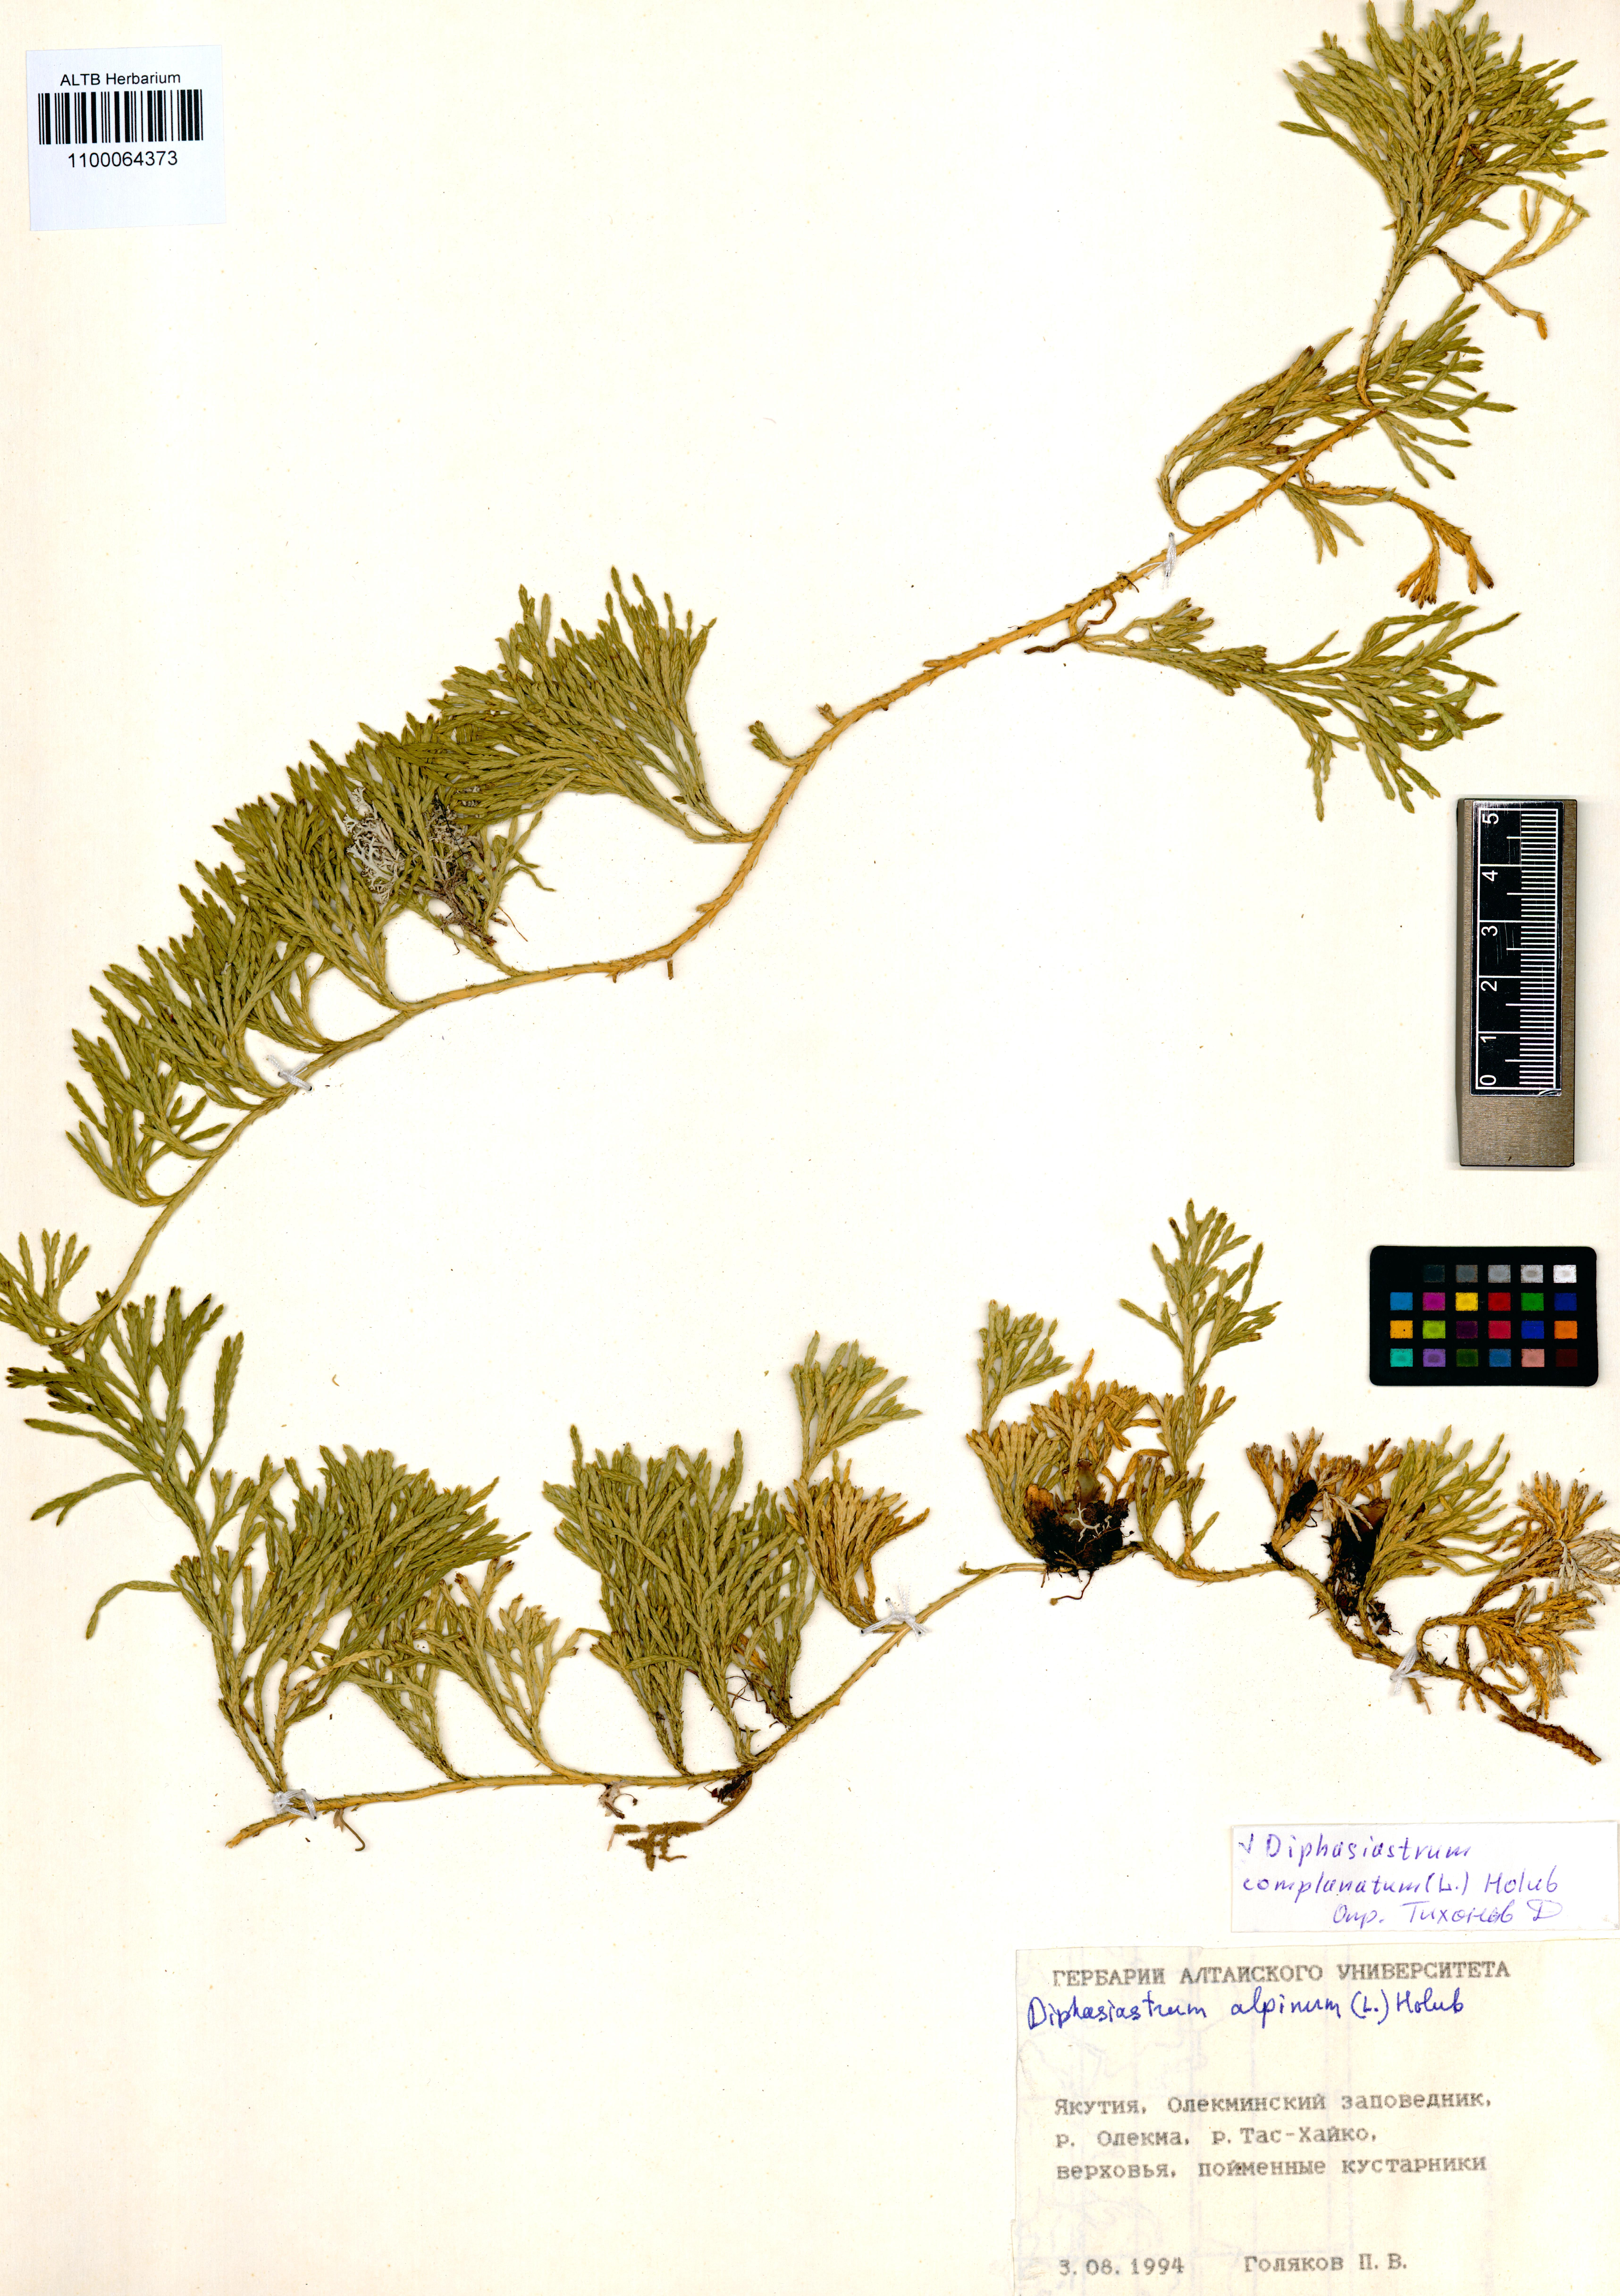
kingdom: Plantae
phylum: Tracheophyta
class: Lycopodiopsida
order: Lycopodiales
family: Lycopodiaceae
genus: Diphasiastrum
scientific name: Diphasiastrum complanatum
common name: Northern running-pine
